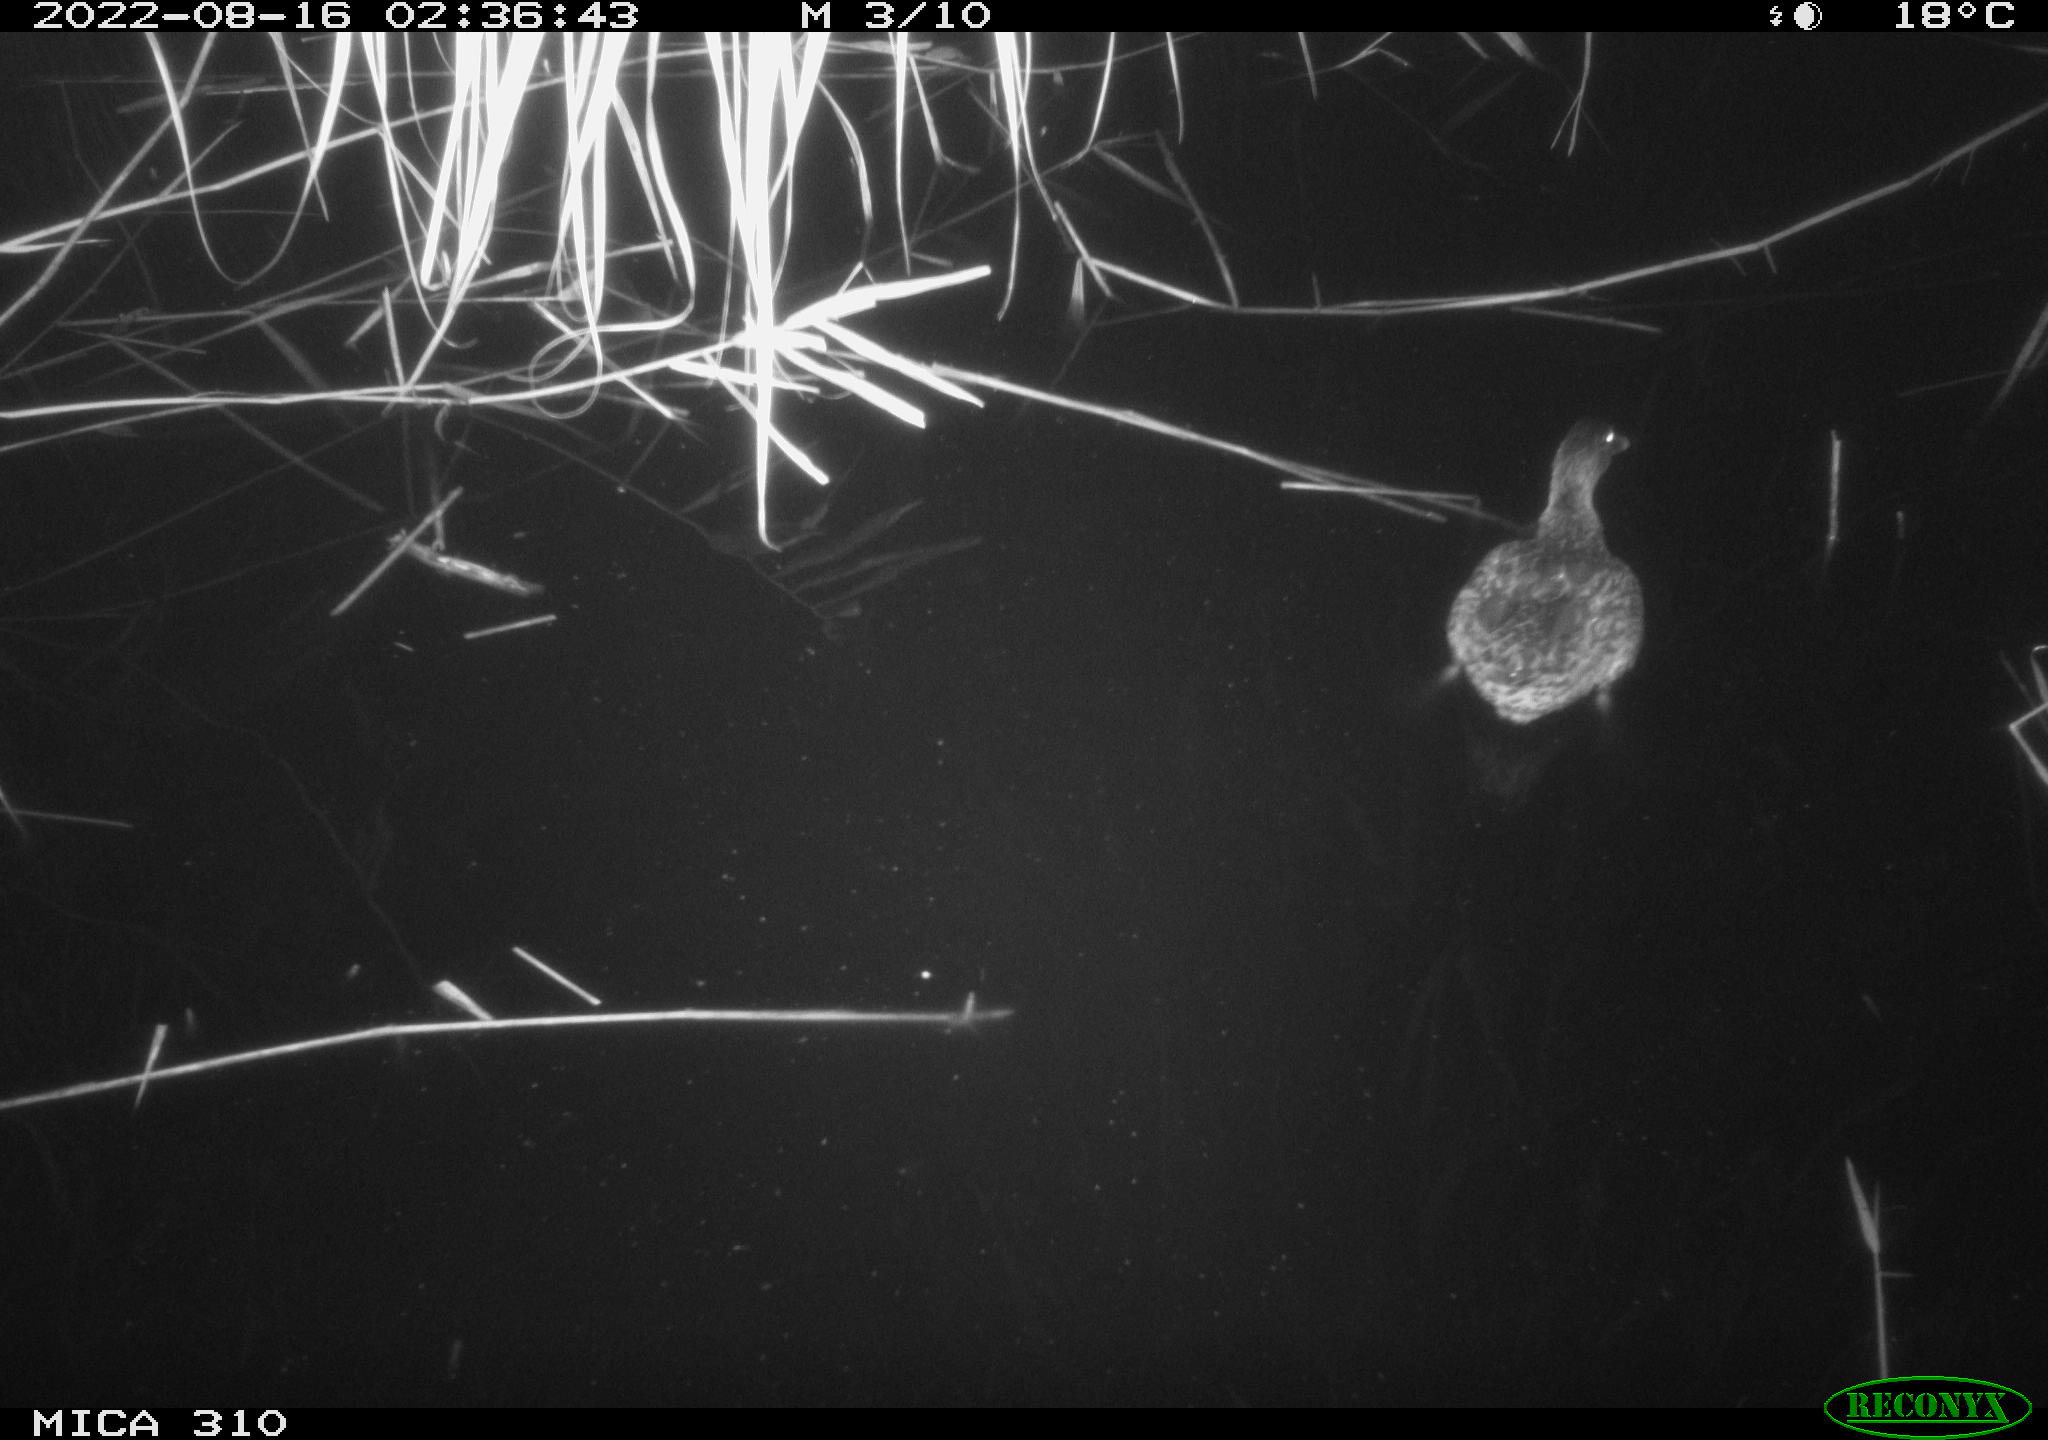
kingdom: Animalia
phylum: Chordata
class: Aves
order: Anseriformes
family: Anatidae
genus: Anas
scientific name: Anas platyrhynchos
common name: Mallard
